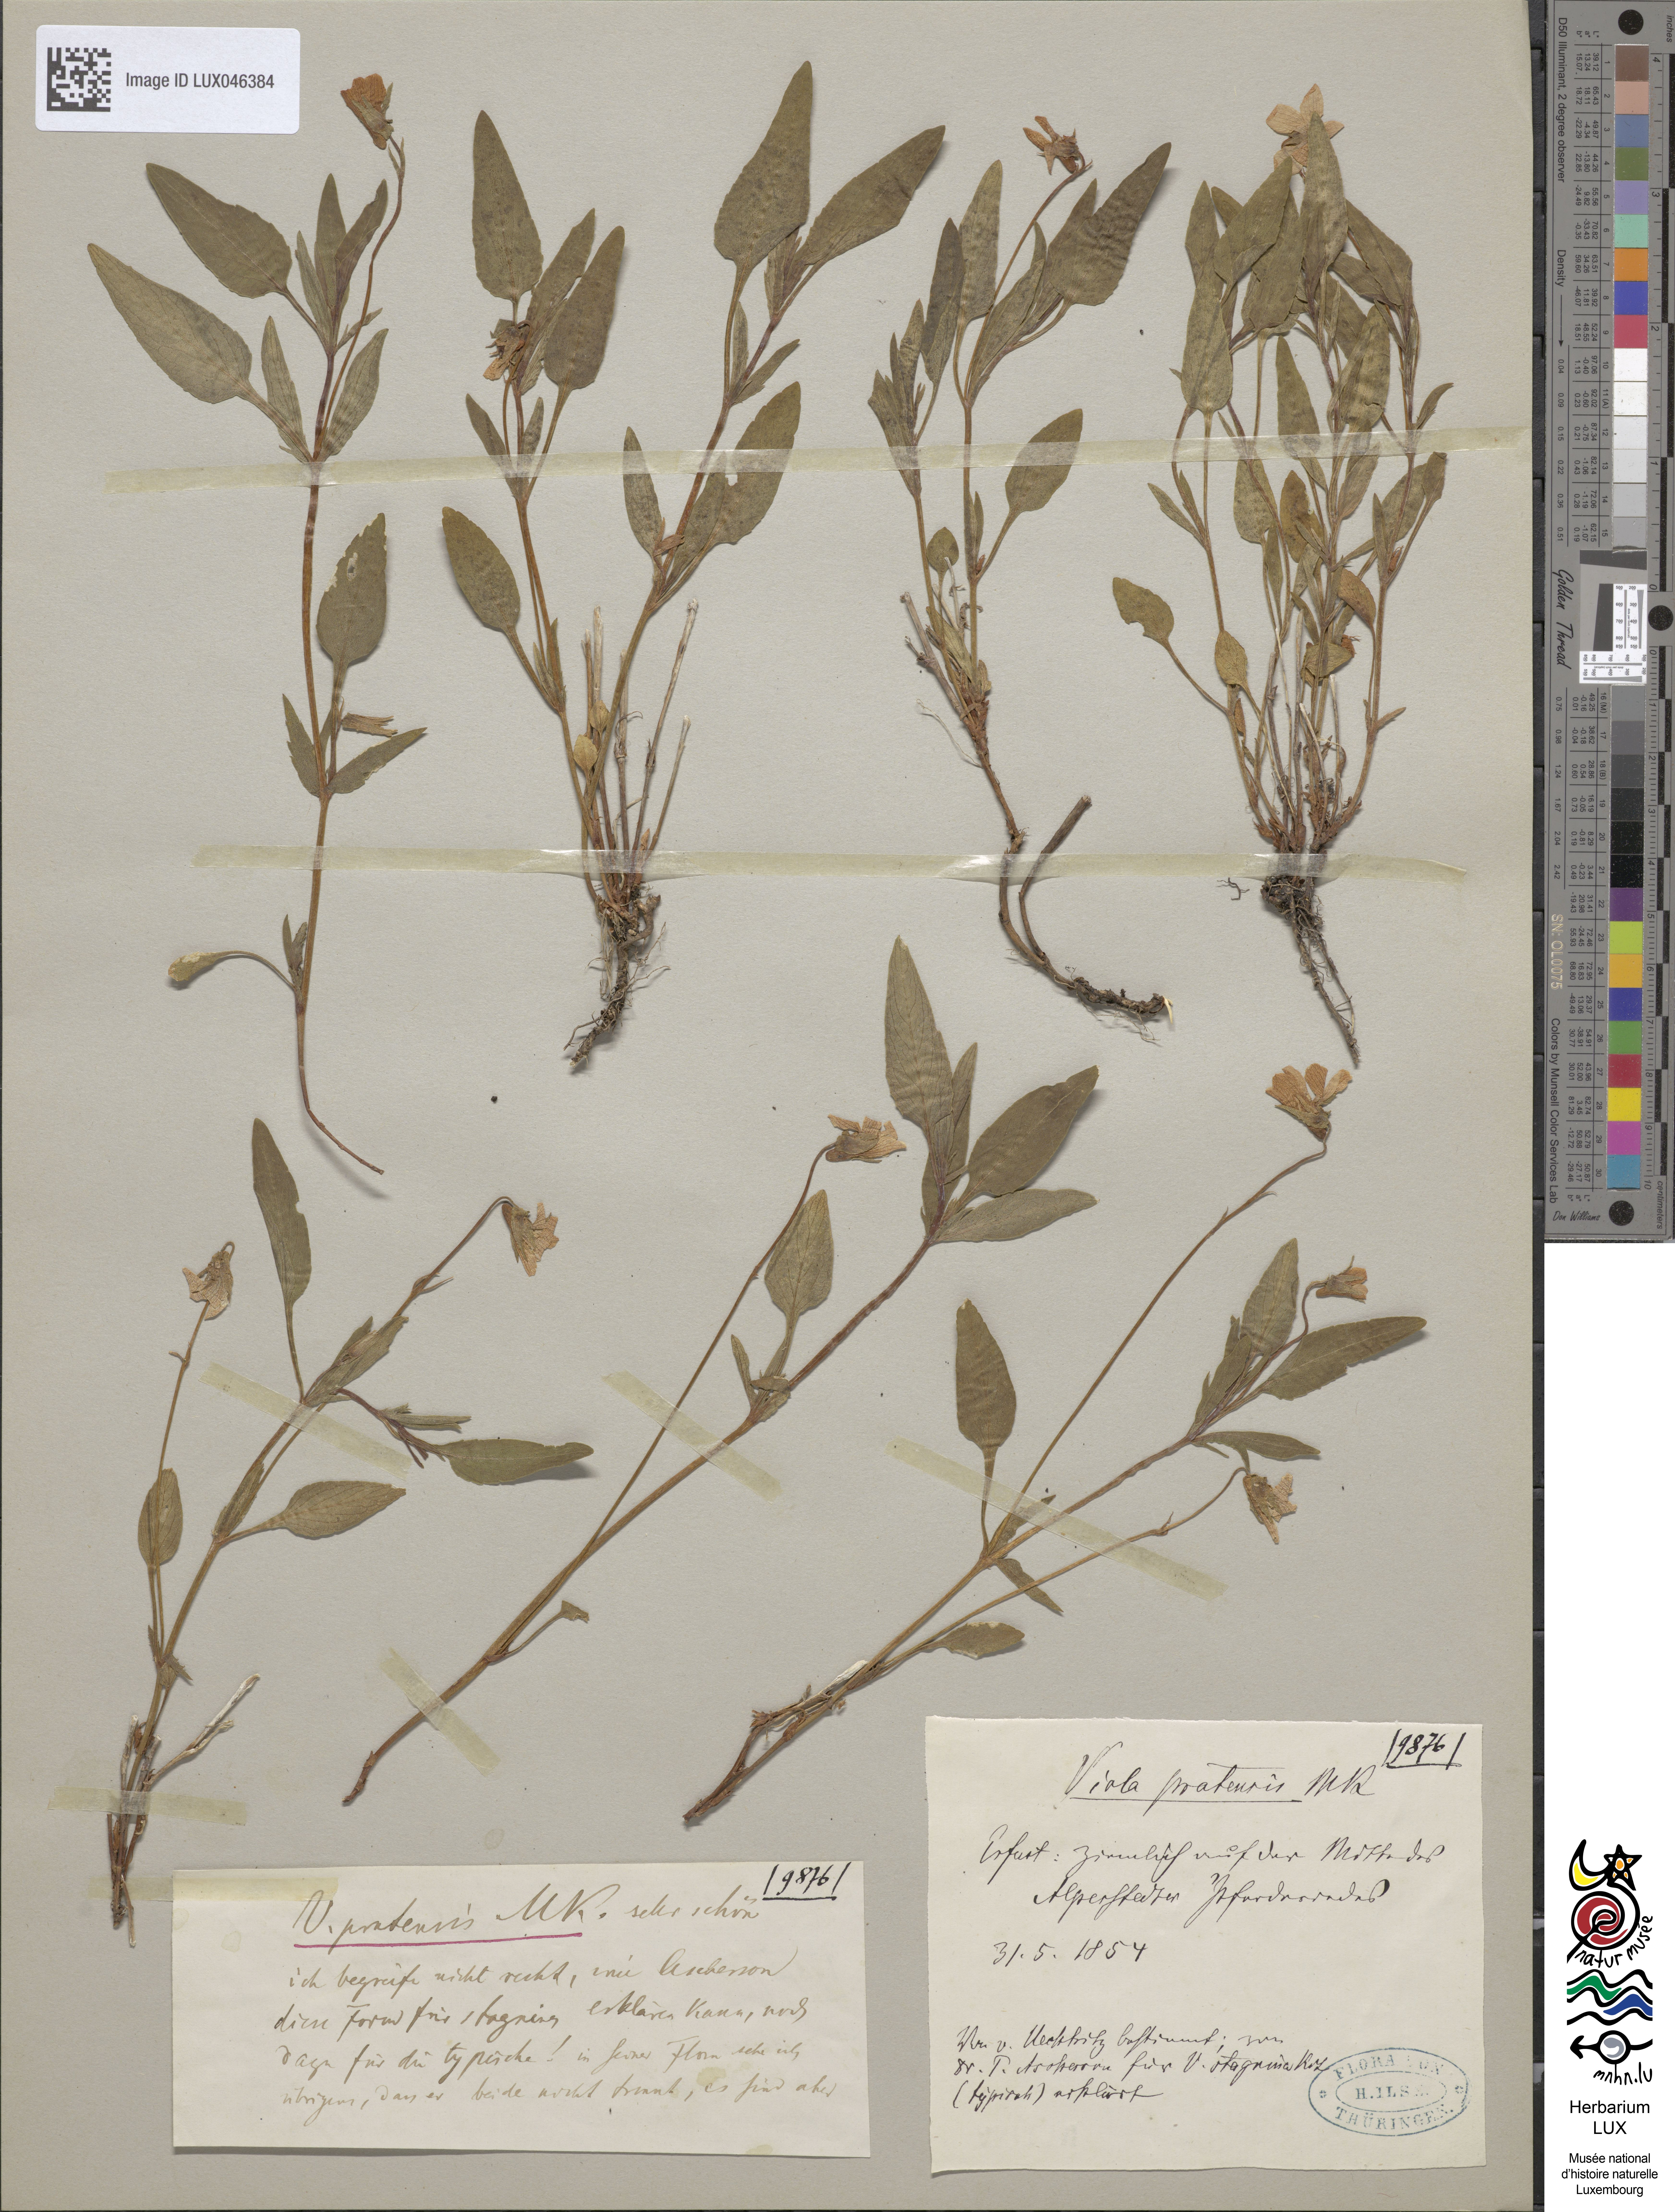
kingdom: Plantae
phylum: Tracheophyta
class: Magnoliopsida
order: Malpighiales
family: Violaceae
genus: Viola
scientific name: Viola pumila
